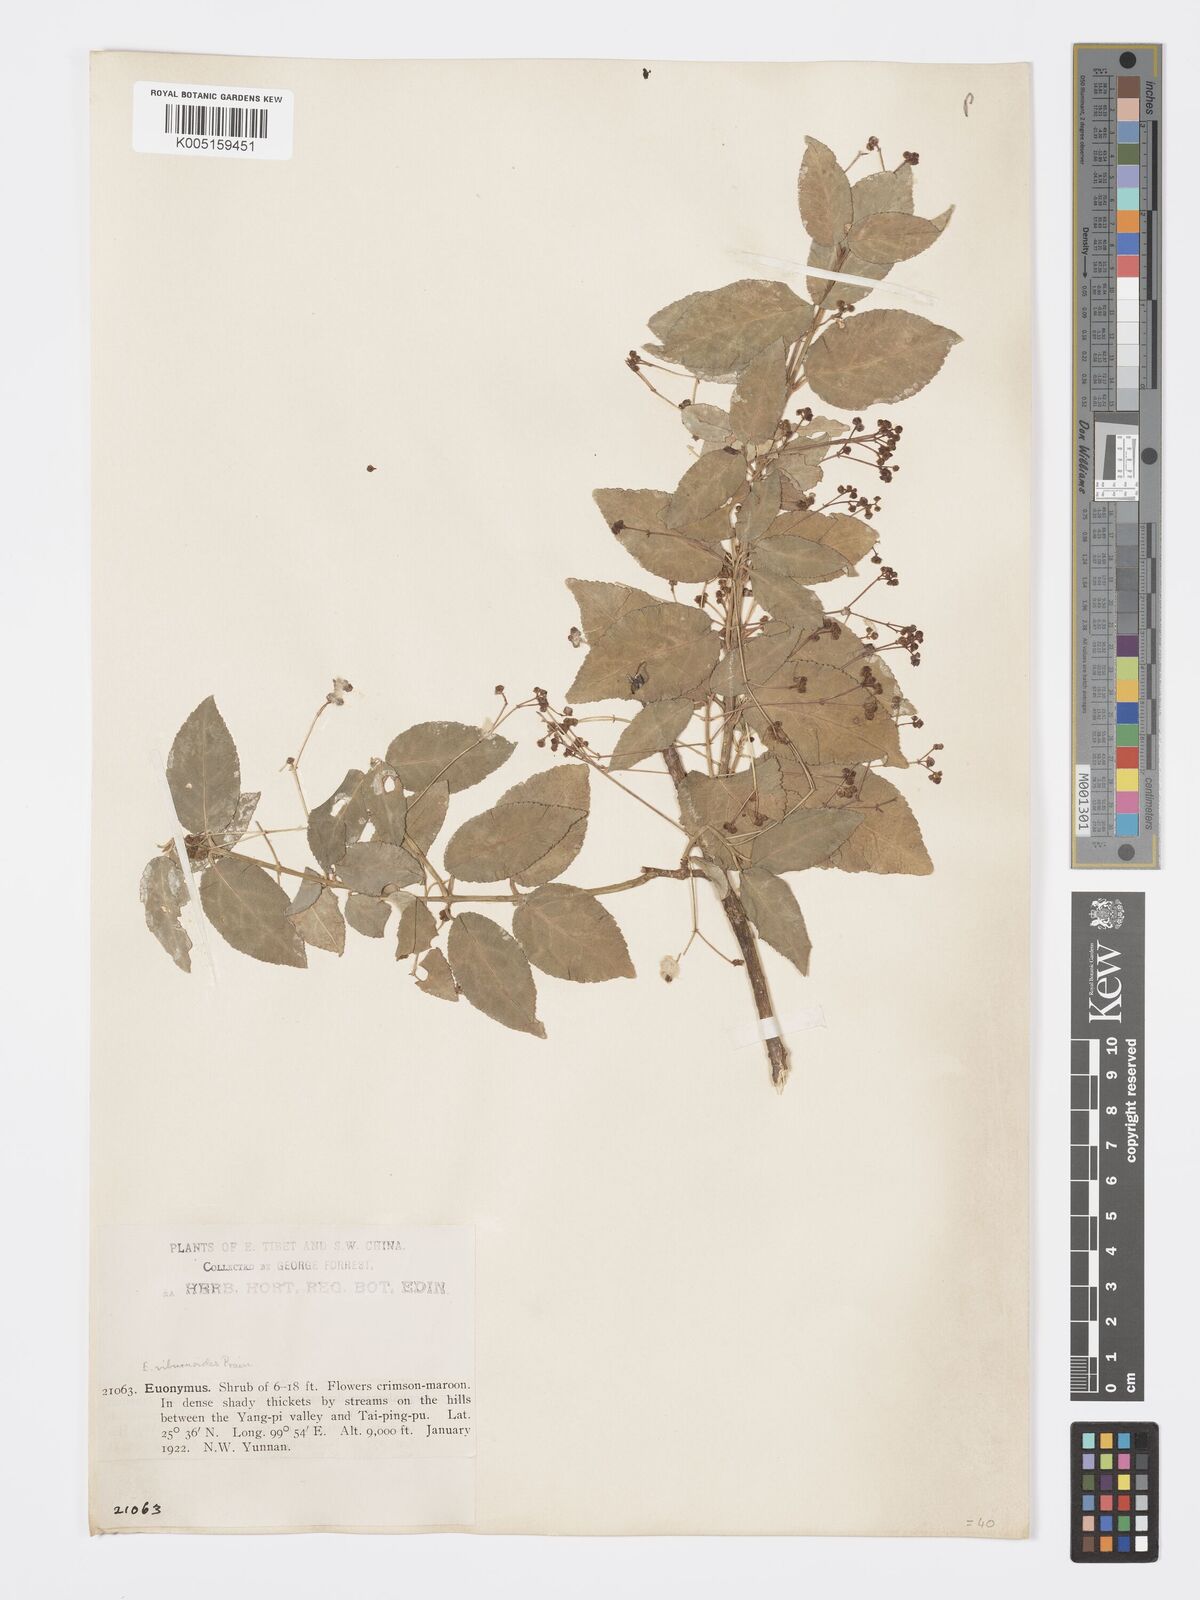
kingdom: Plantae
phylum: Tracheophyta
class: Magnoliopsida
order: Celastrales
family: Celastraceae
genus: Euonymus
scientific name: Euonymus viburnoides
